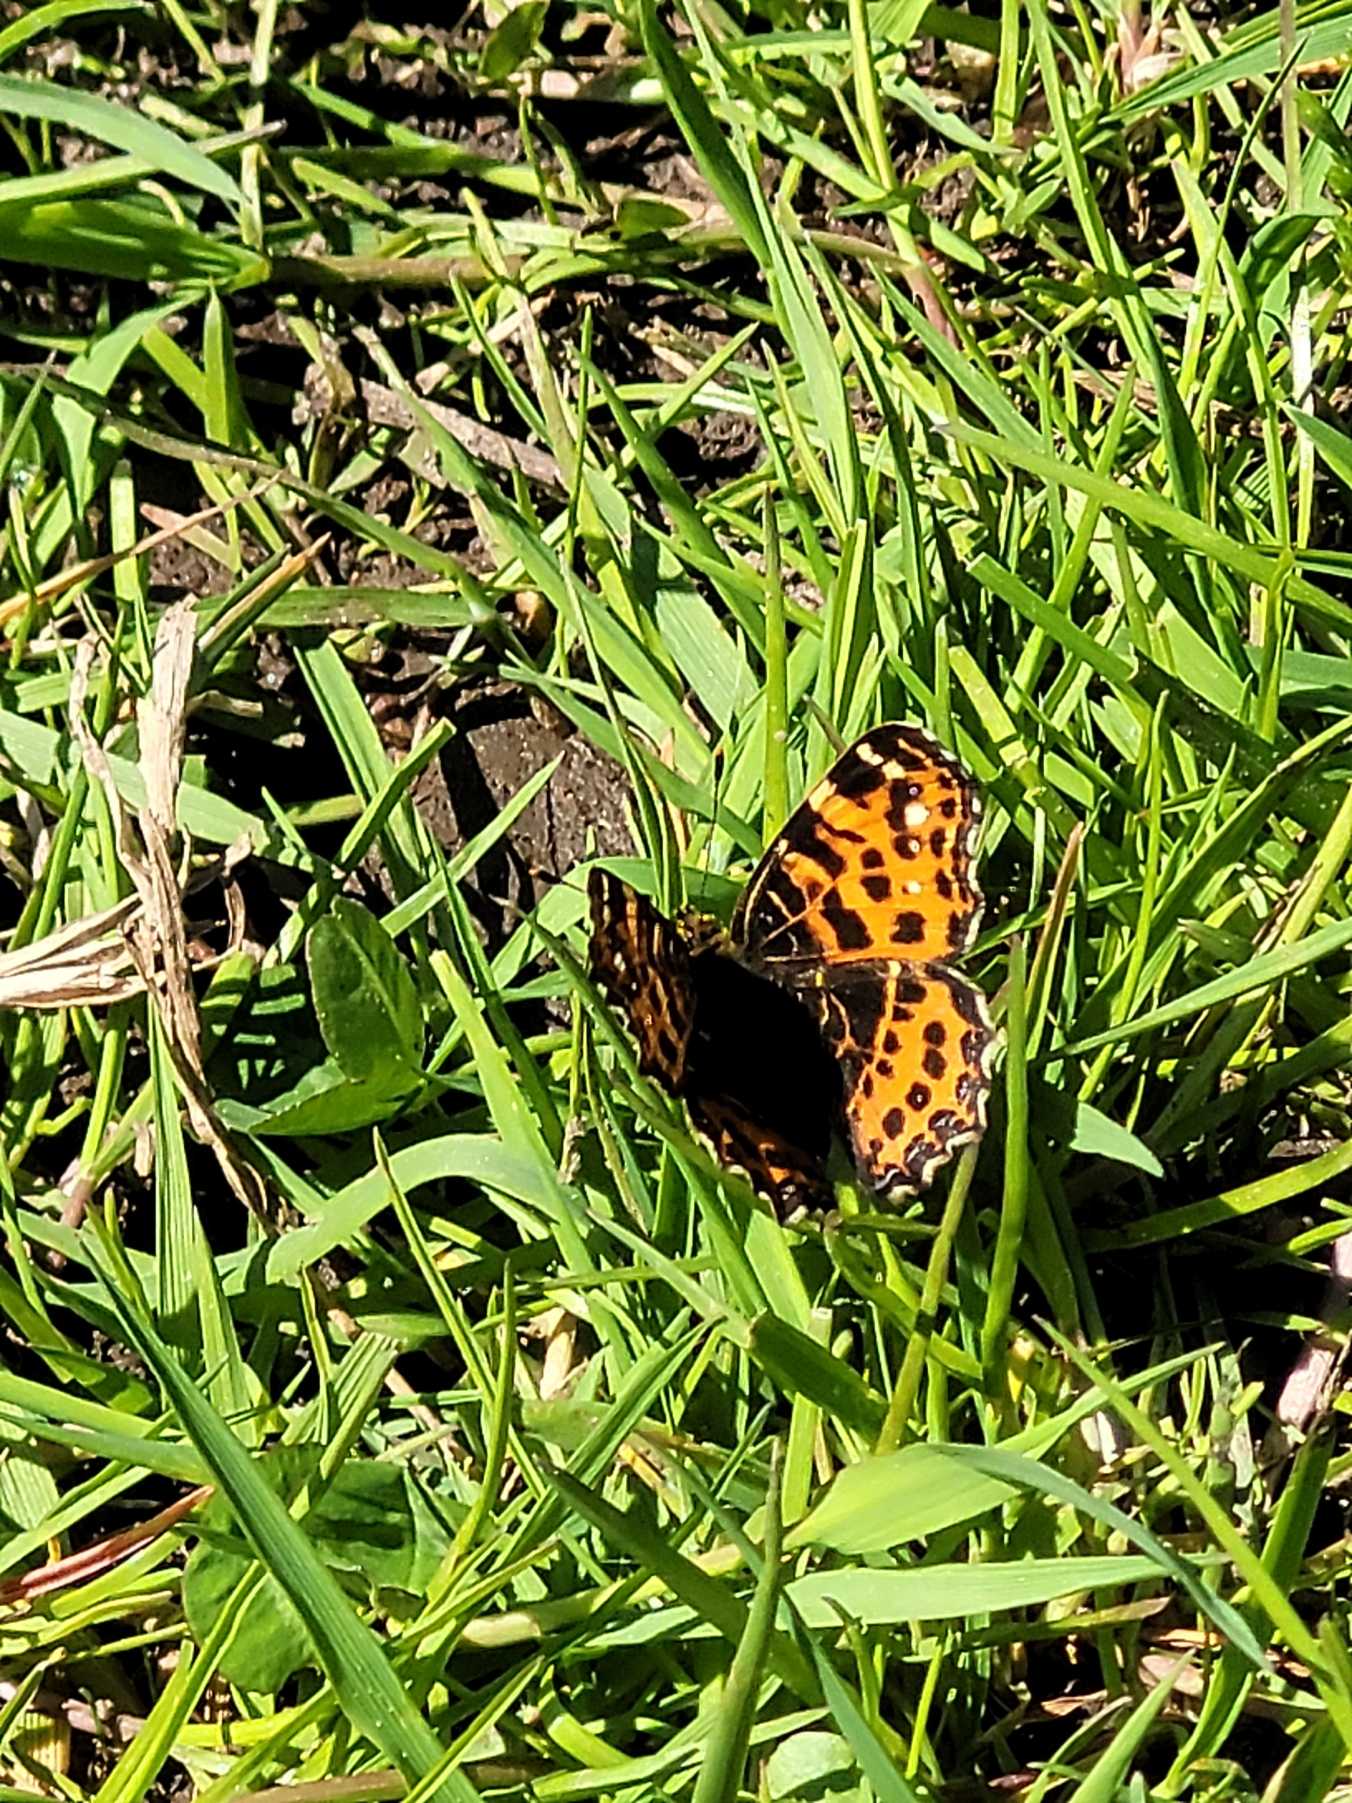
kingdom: Animalia
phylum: Arthropoda
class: Insecta
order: Lepidoptera
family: Nymphalidae
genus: Araschnia
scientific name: Araschnia levana
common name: Nældesommerfugl
